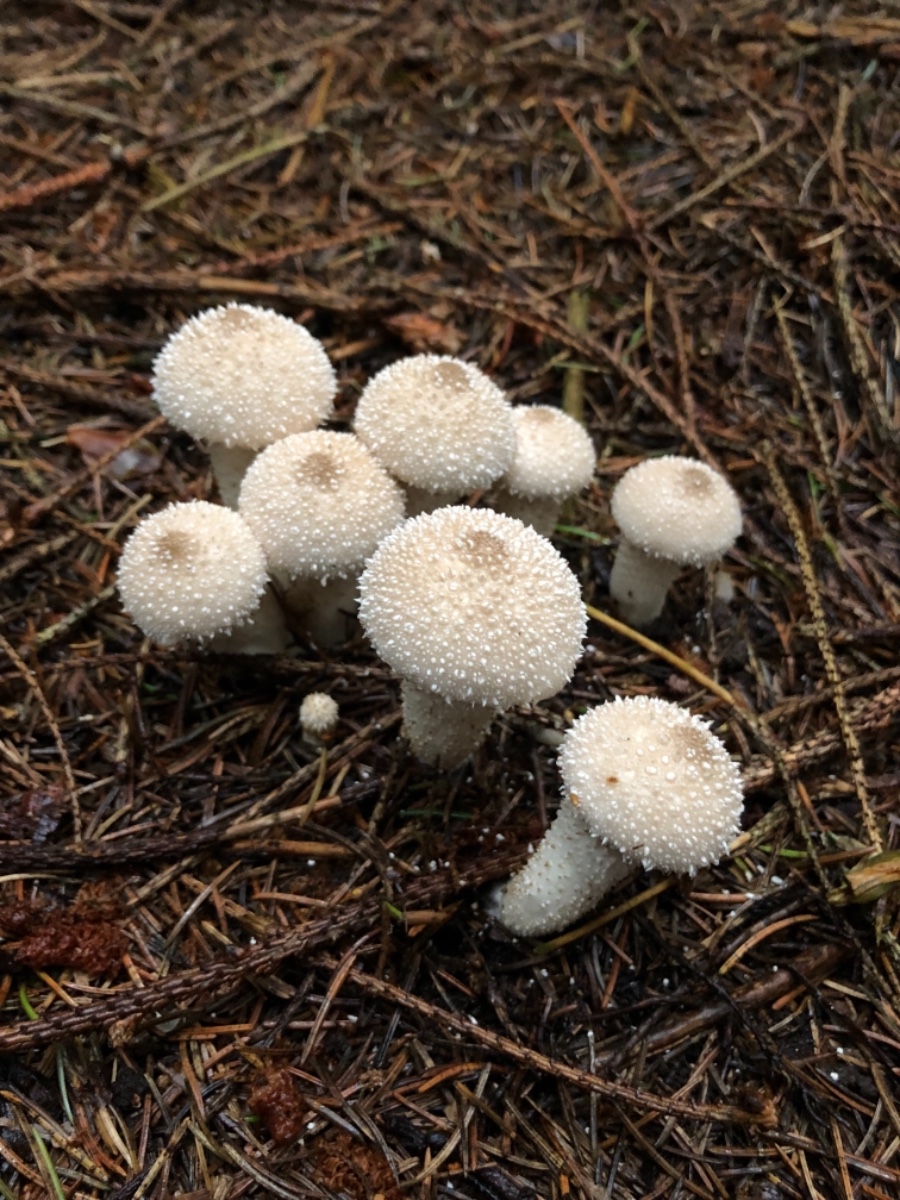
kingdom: Fungi
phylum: Basidiomycota
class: Agaricomycetes
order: Agaricales
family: Lycoperdaceae
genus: Lycoperdon
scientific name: Lycoperdon perlatum
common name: krystal-støvbold
